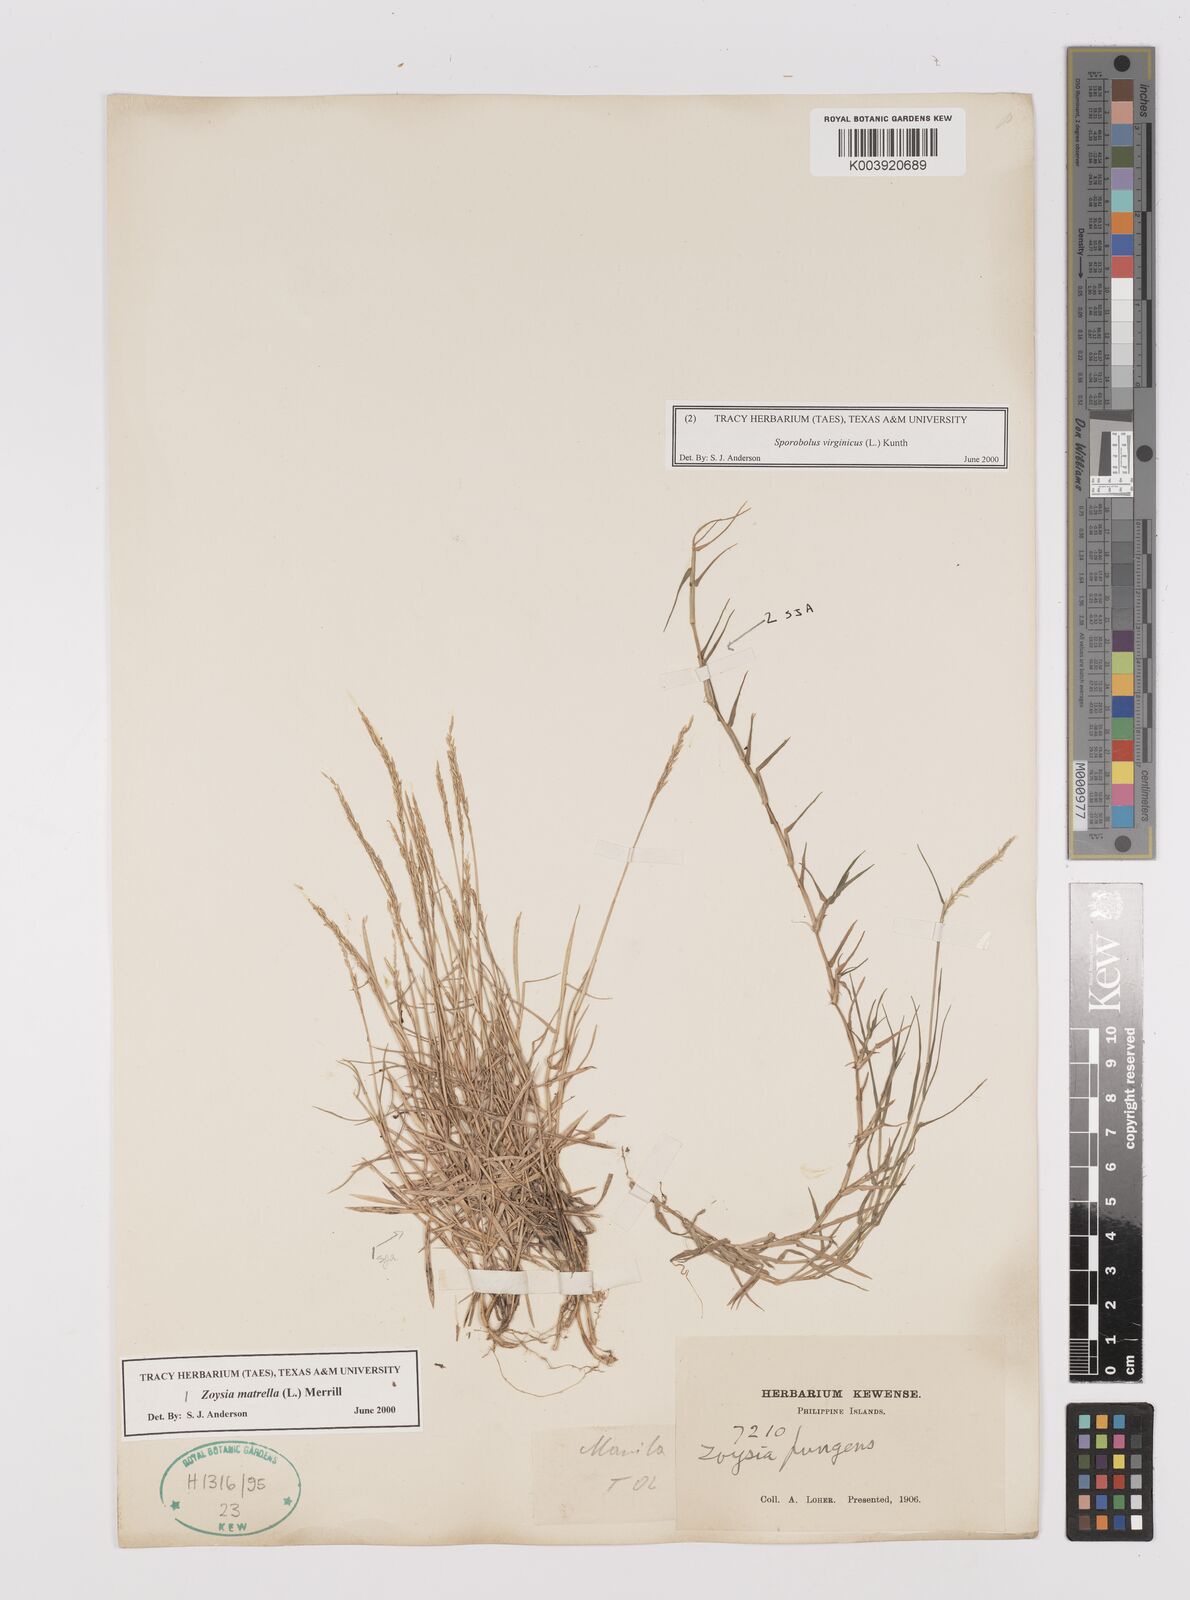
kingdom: Plantae
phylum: Tracheophyta
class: Liliopsida
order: Poales
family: Poaceae
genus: Zoysia
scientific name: Zoysia matrella
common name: Manila grass
